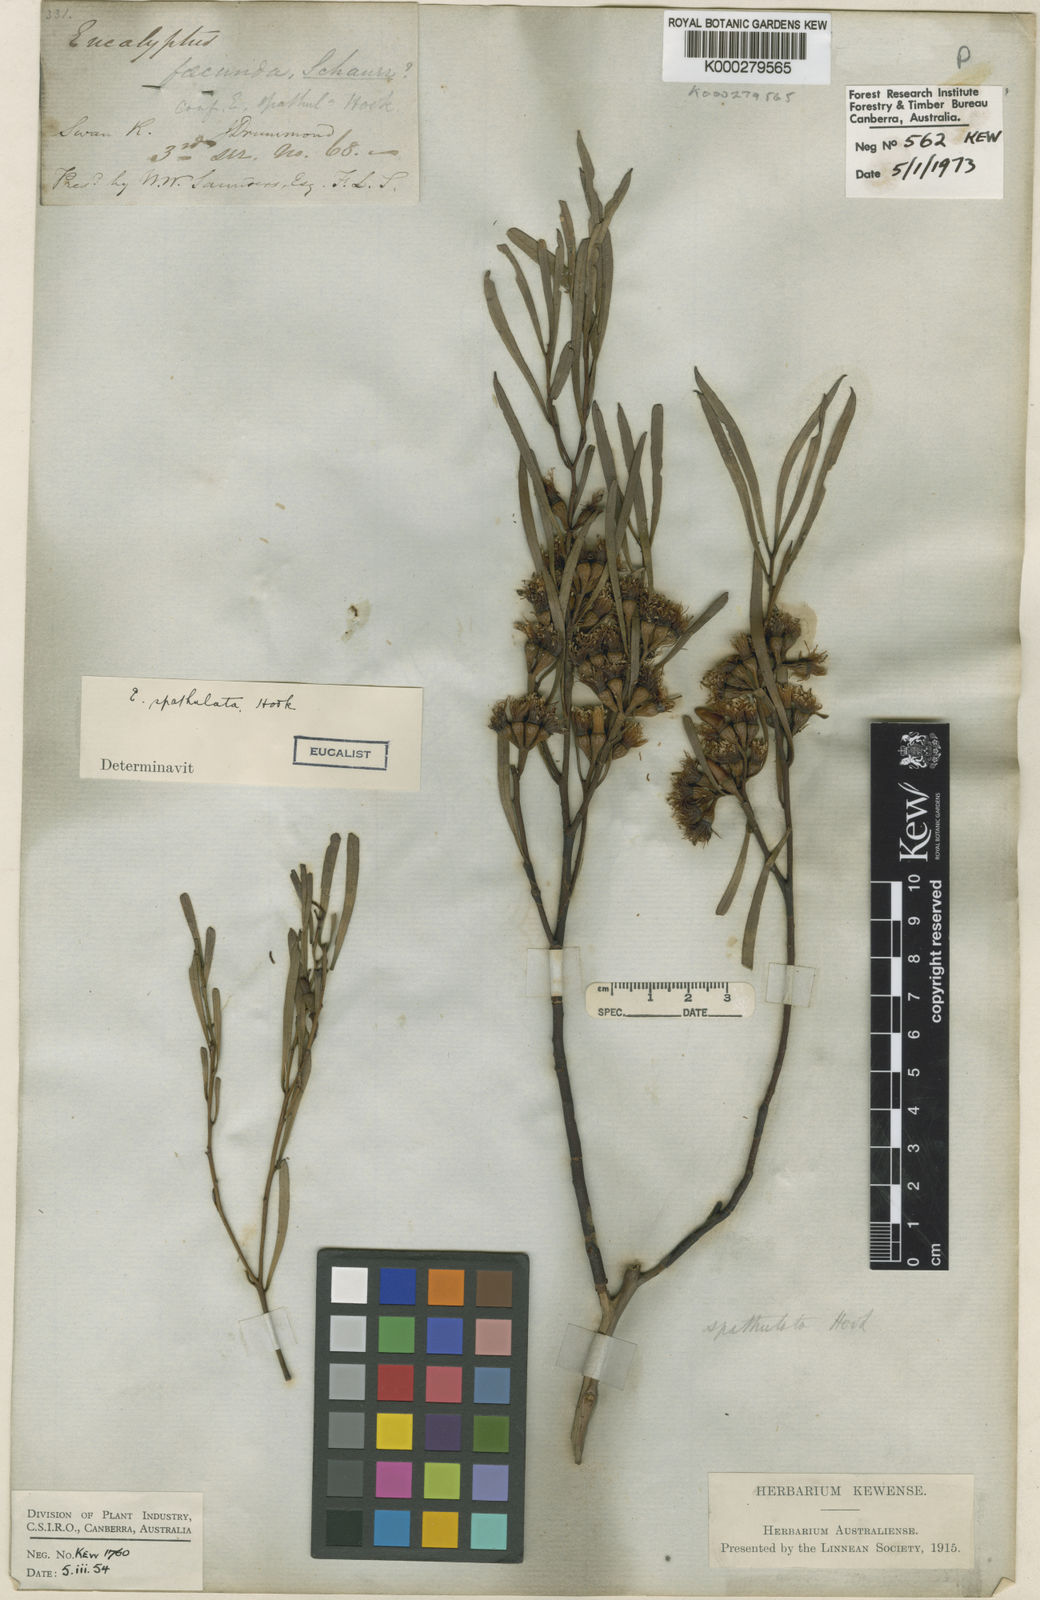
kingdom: Plantae
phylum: Tracheophyta
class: Magnoliopsida
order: Myrtales
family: Myrtaceae
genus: Eucalyptus
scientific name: Eucalyptus spathulata
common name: Swamp mallet
